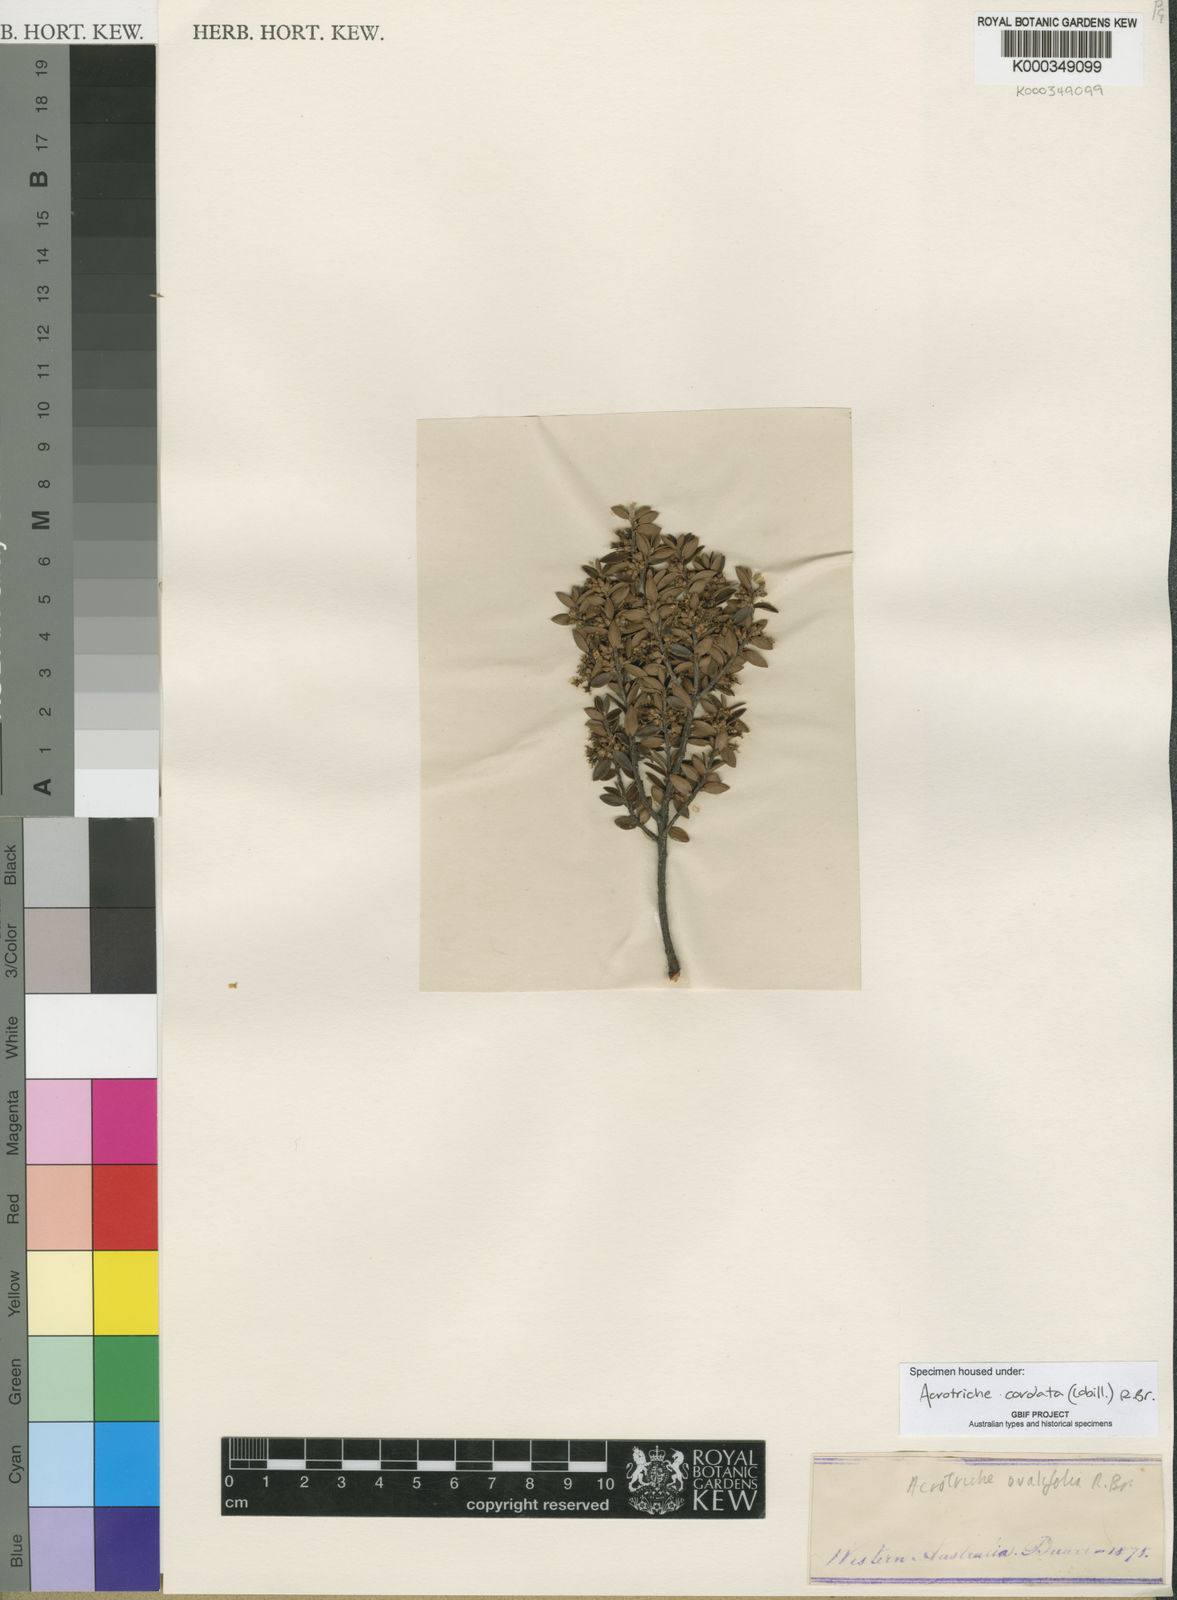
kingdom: Plantae
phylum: Tracheophyta
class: Magnoliopsida
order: Ericales
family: Ericaceae
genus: Acrotriche
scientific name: Acrotriche cordata
